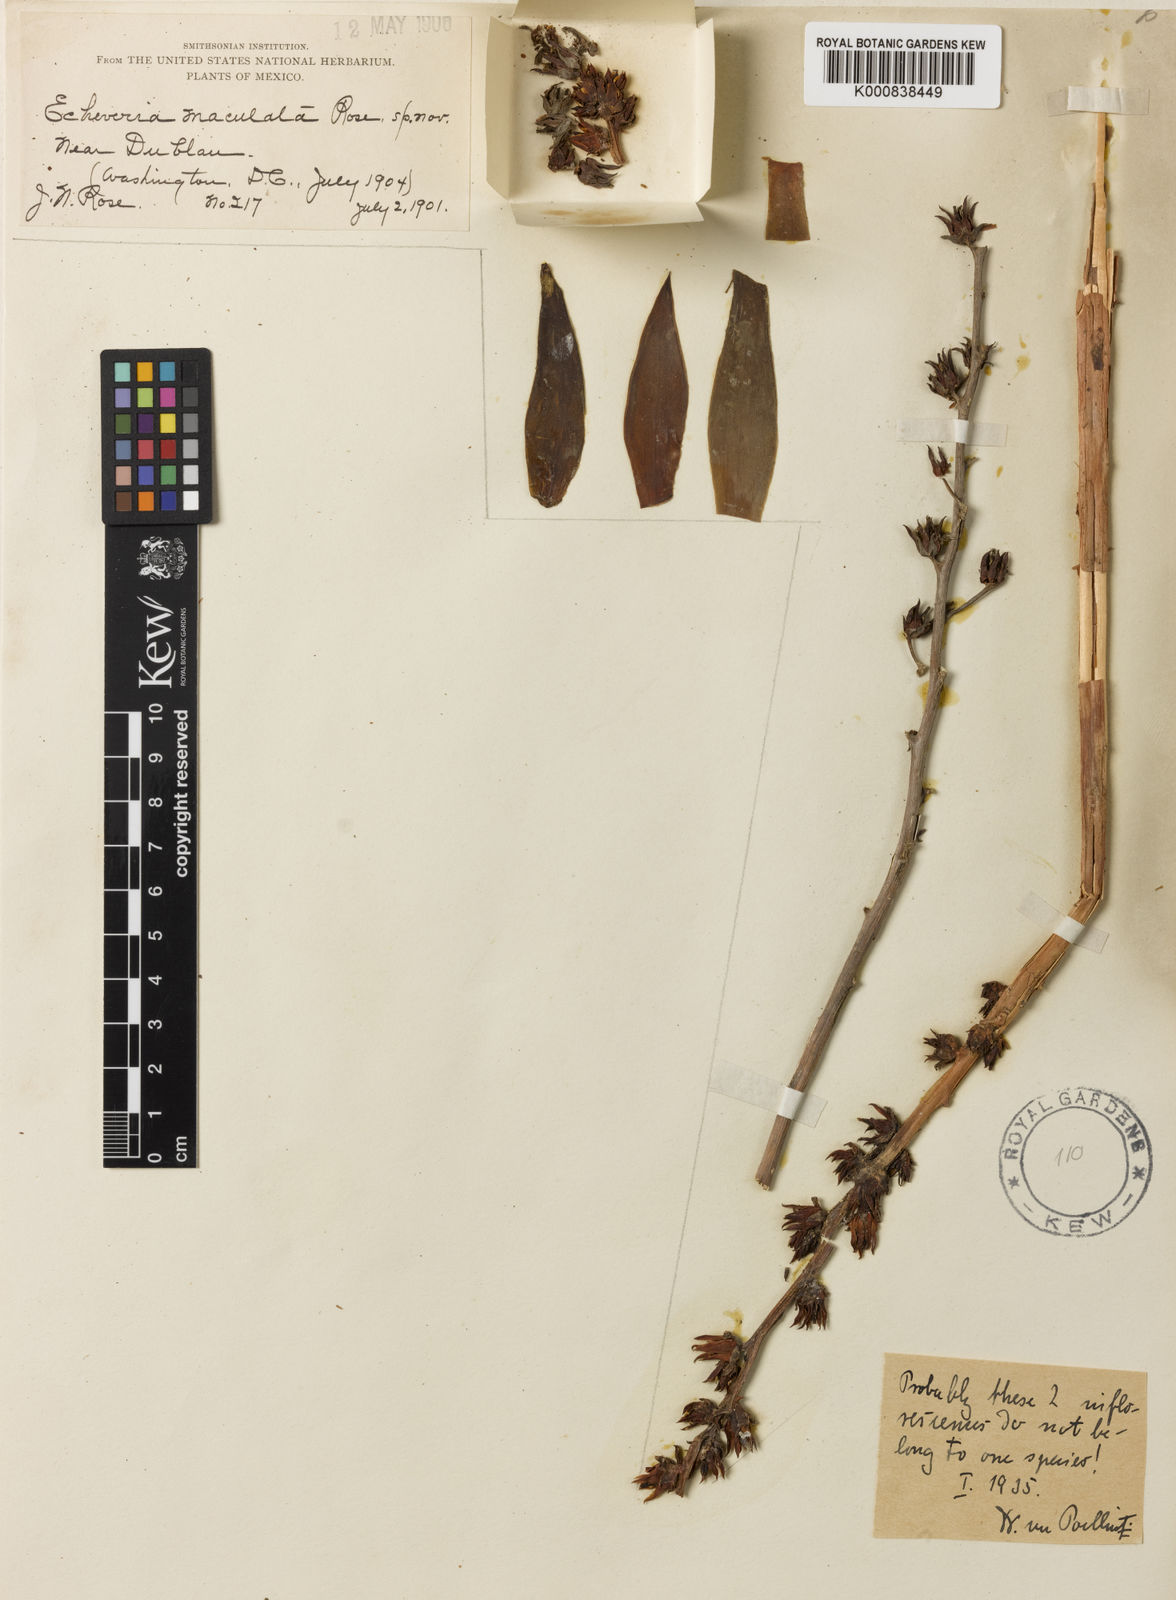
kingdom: Plantae
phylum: Tracheophyta
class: Magnoliopsida
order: Saxifragales
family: Crassulaceae
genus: Echeveria
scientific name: Echeveria paniculata
